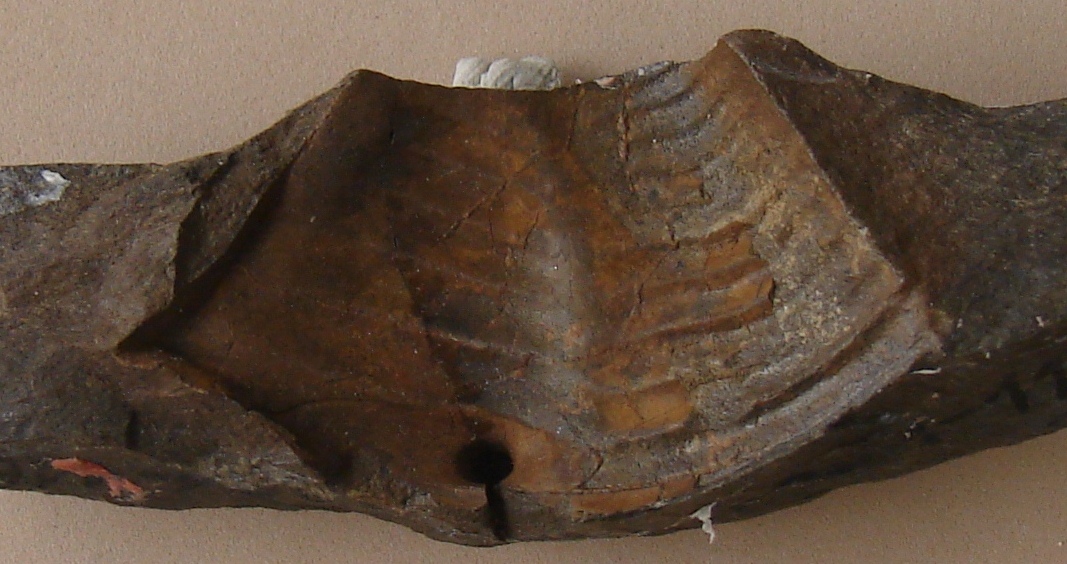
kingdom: Animalia
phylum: Arthropoda
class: Trilobita
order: Phacopida
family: Bathycheilidae
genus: Burmeisterella
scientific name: Burmeisterella
